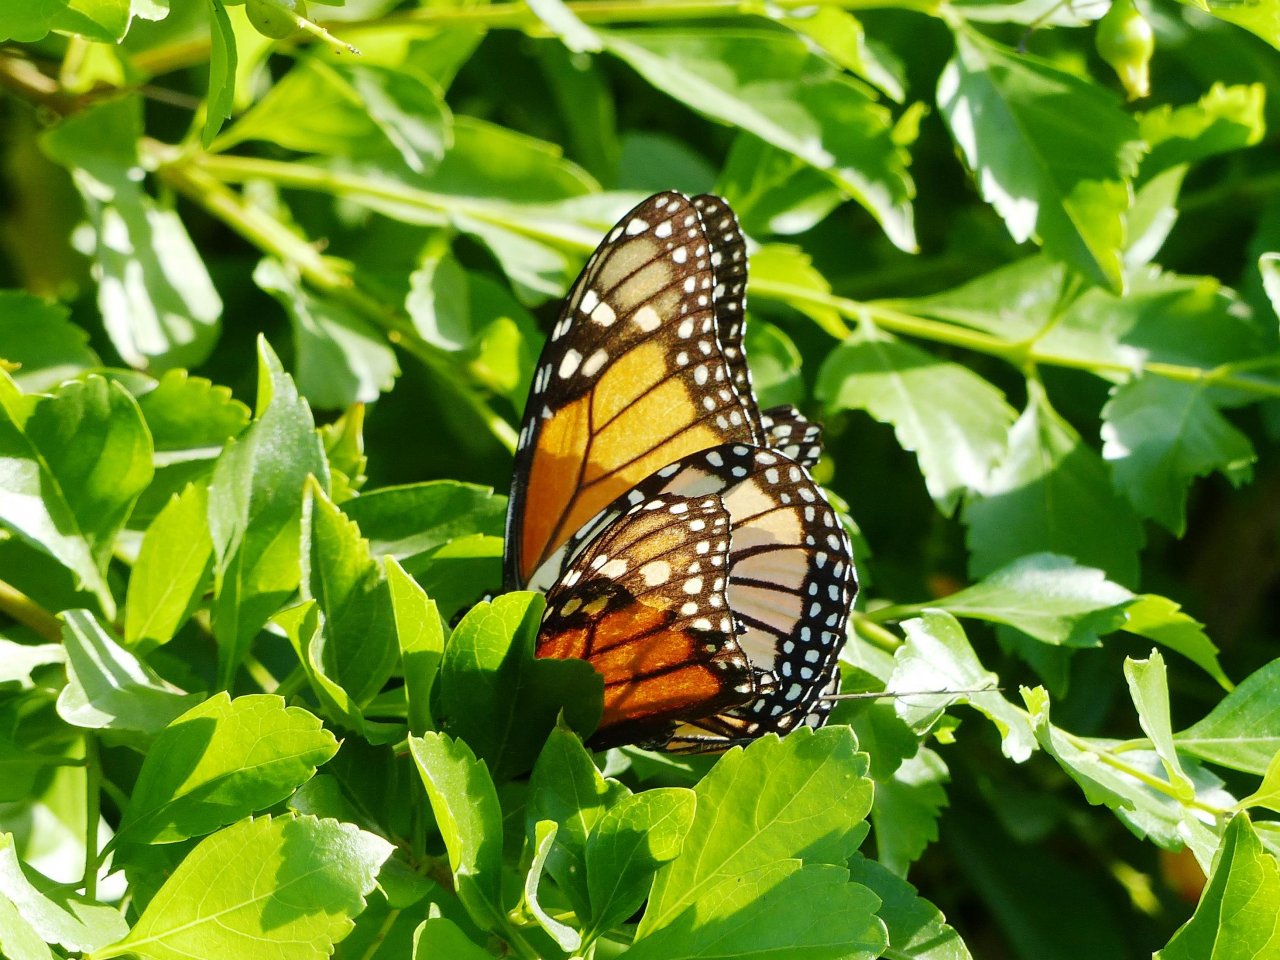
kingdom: Animalia
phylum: Arthropoda
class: Insecta
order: Lepidoptera
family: Nymphalidae
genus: Danaus
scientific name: Danaus plexippus
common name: Monarch
